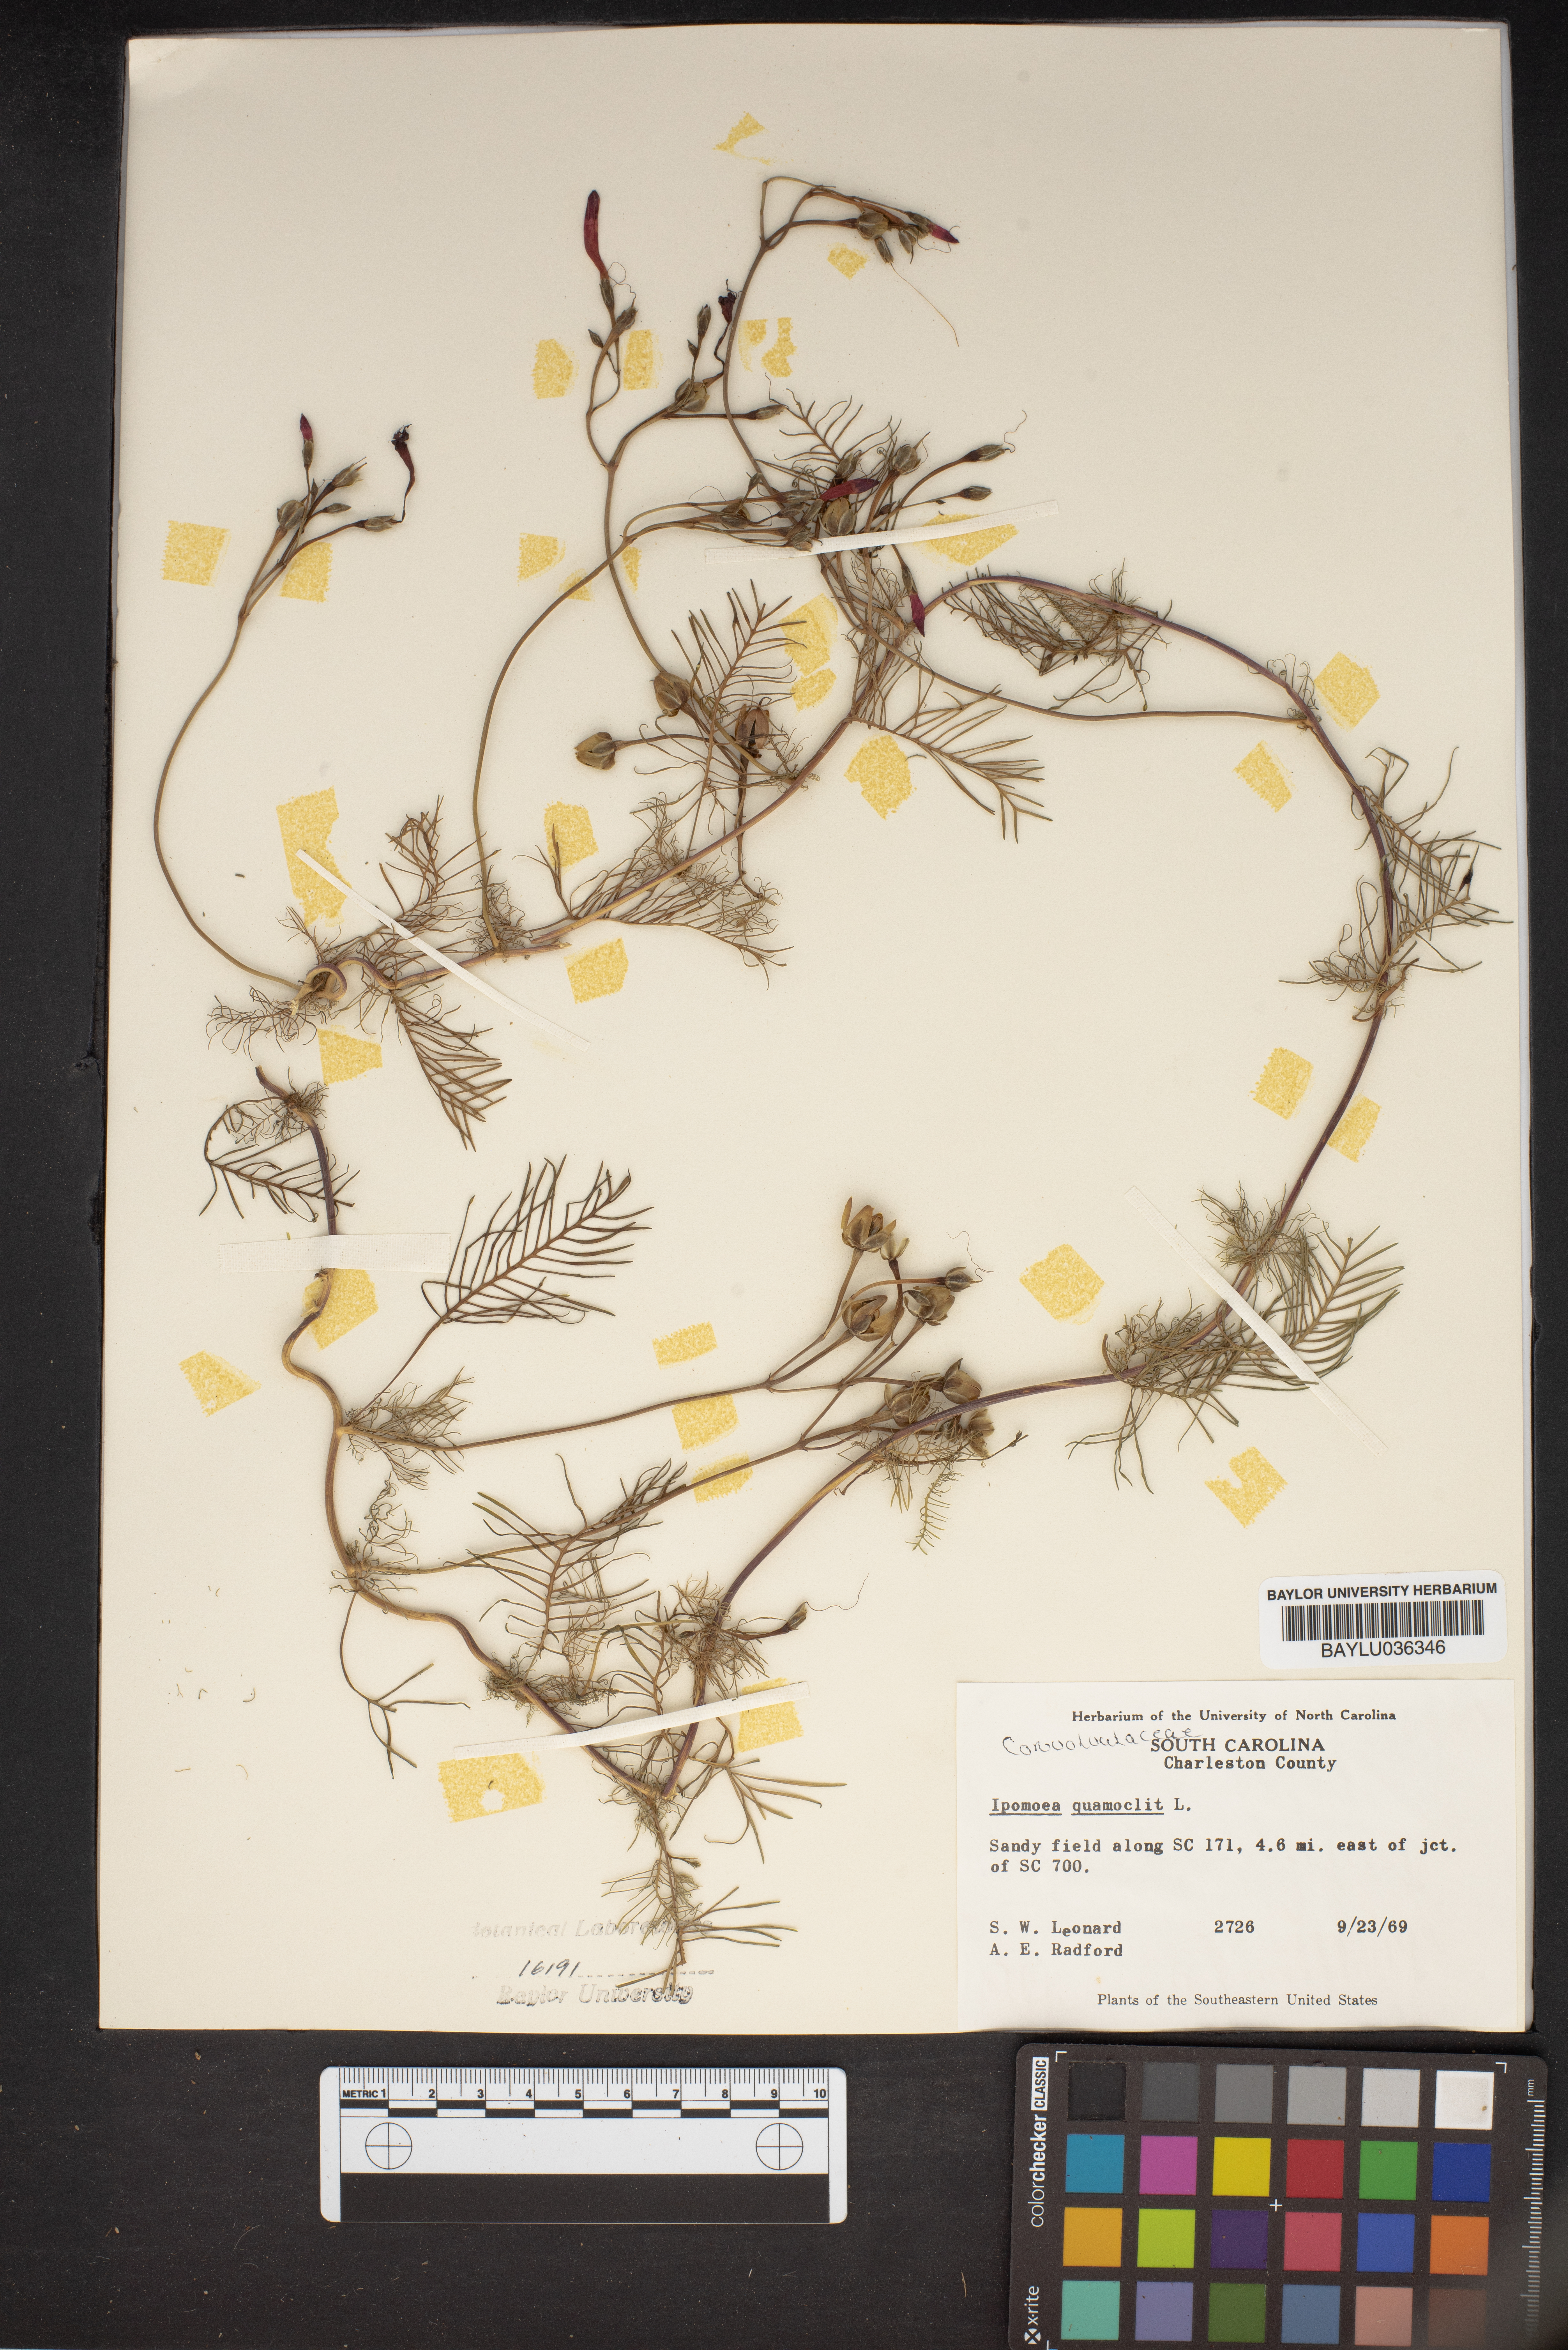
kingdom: Plantae
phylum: Tracheophyta
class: Magnoliopsida
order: Solanales
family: Convolvulaceae
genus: Ipomoea
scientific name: Ipomoea quamoclit
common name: Cypress vine
